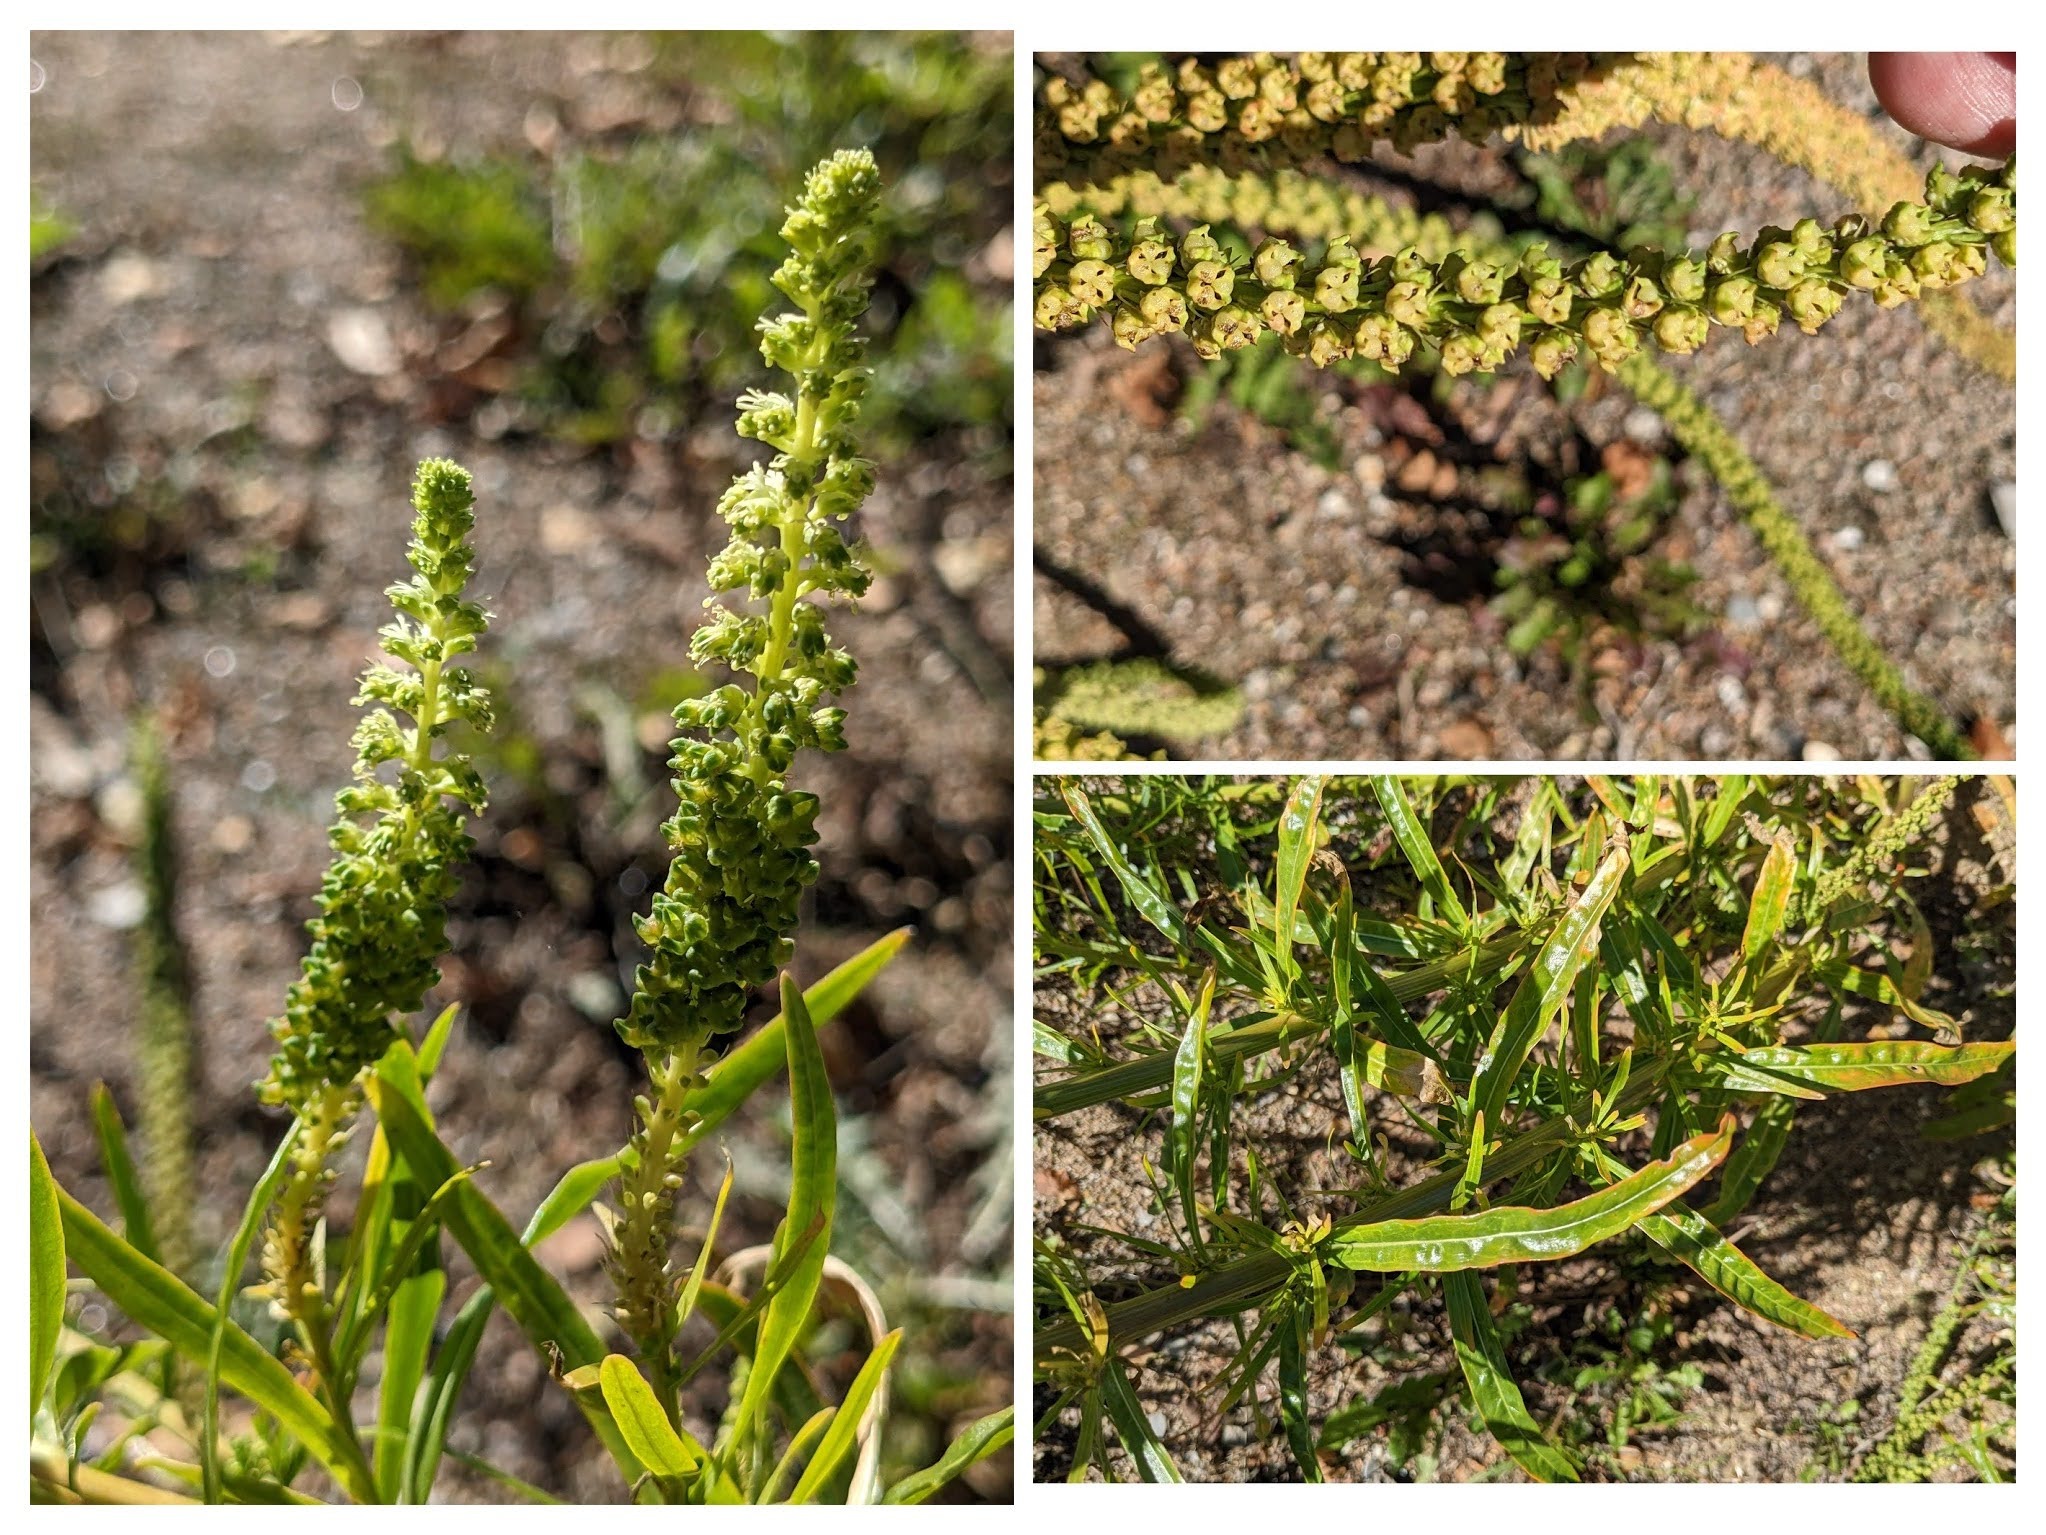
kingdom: Plantae
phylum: Tracheophyta
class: Magnoliopsida
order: Brassicales
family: Resedaceae
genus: Reseda
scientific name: Reseda luteola
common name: Farve-reseda
